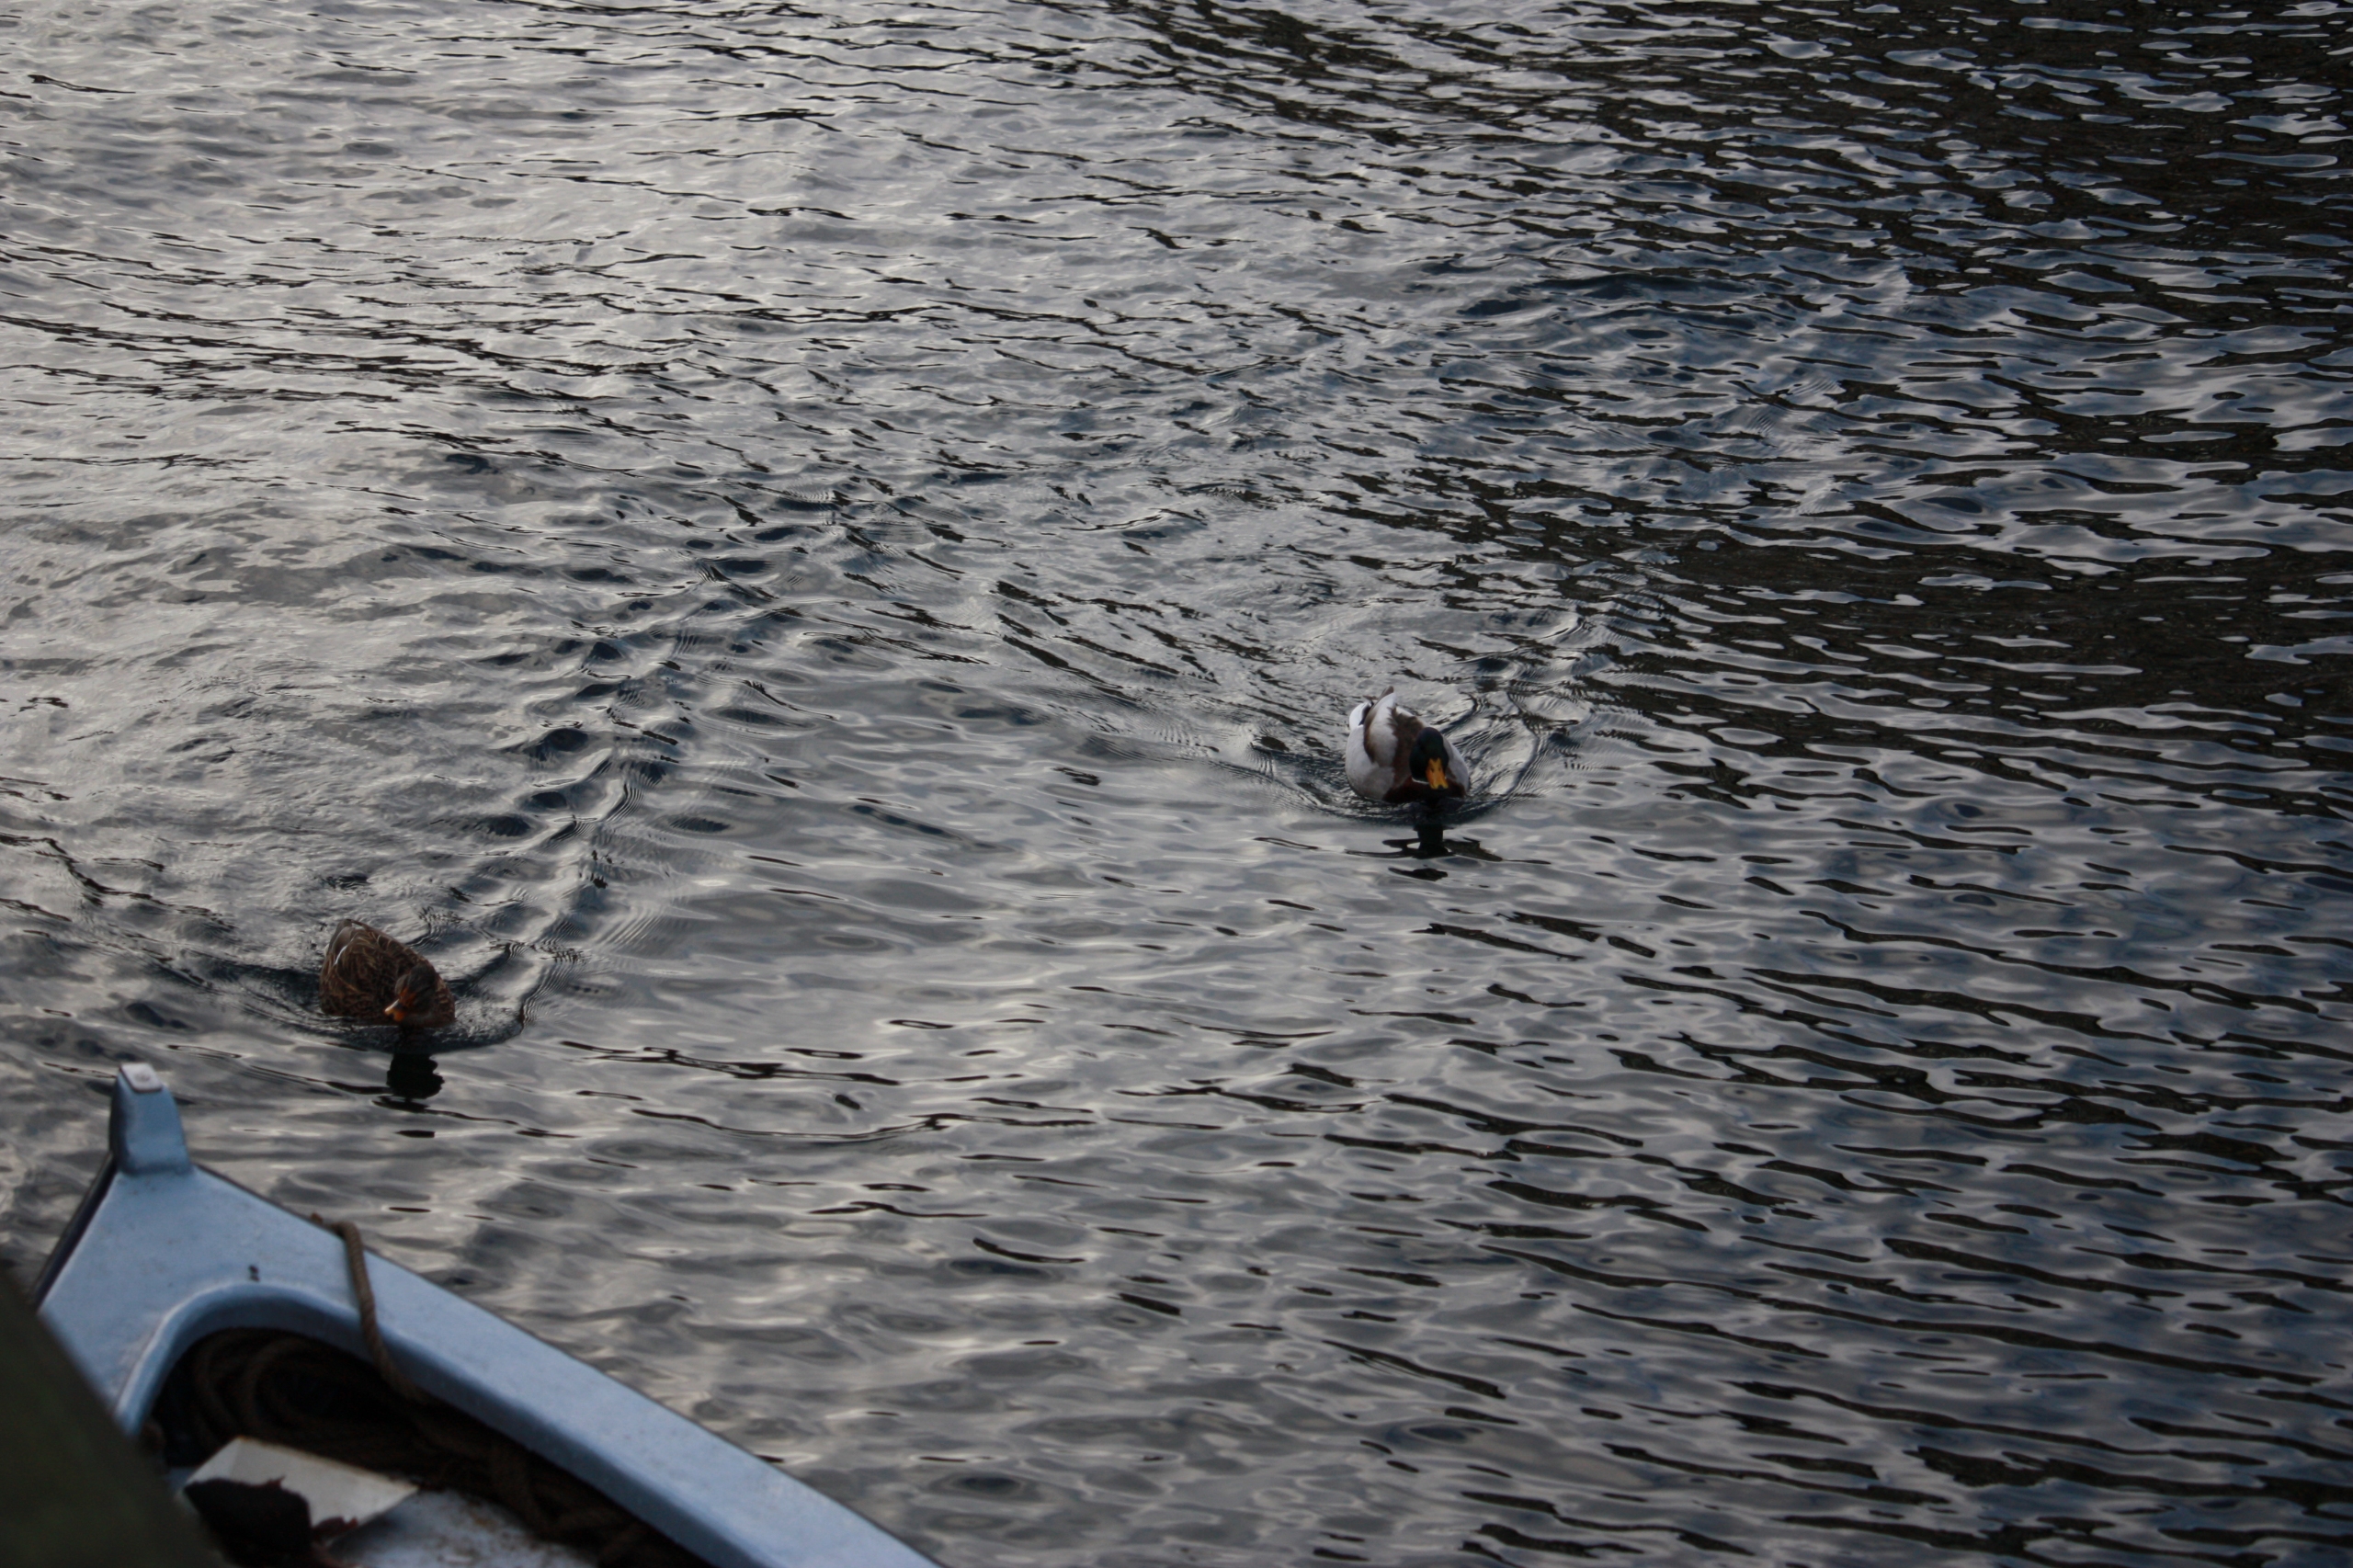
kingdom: Animalia
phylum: Chordata
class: Aves
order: Anseriformes
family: Anatidae
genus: Anas
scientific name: Anas platyrhynchos
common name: Gråand
